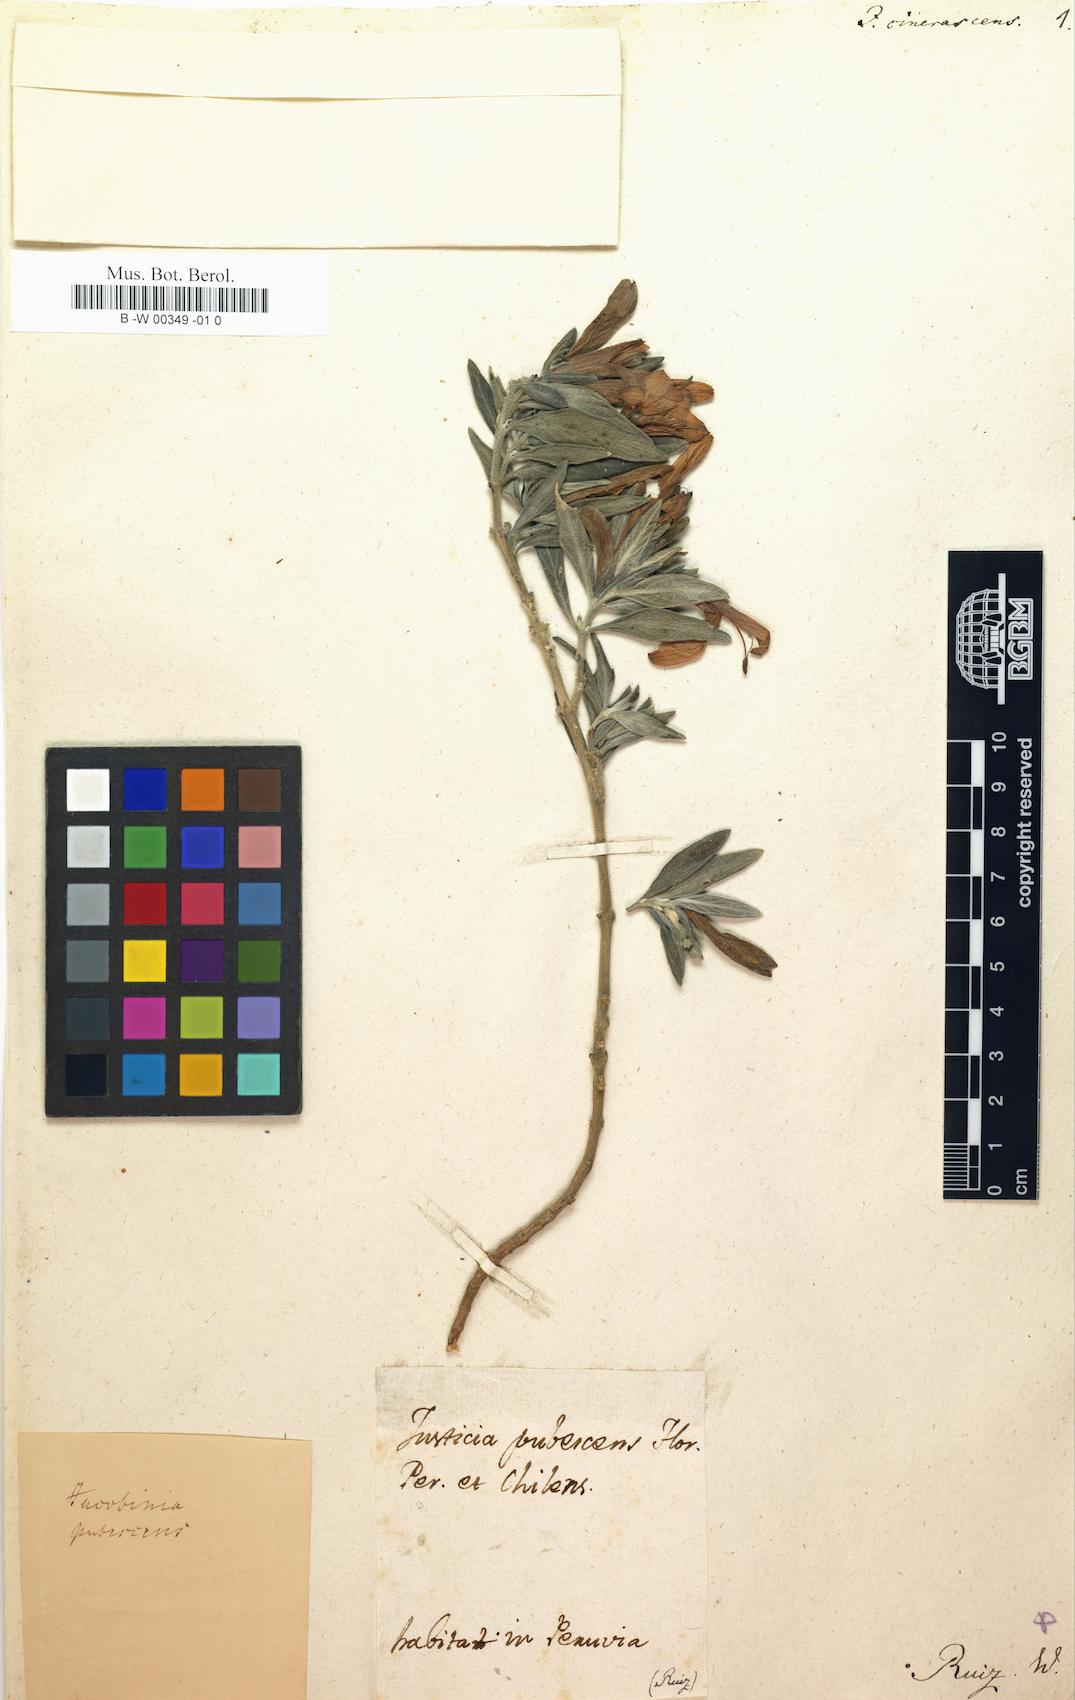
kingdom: Plantae
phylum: Tracheophyta
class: Magnoliopsida
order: Lamiales
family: Acanthaceae
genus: Justicia
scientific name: Justicia sericea
